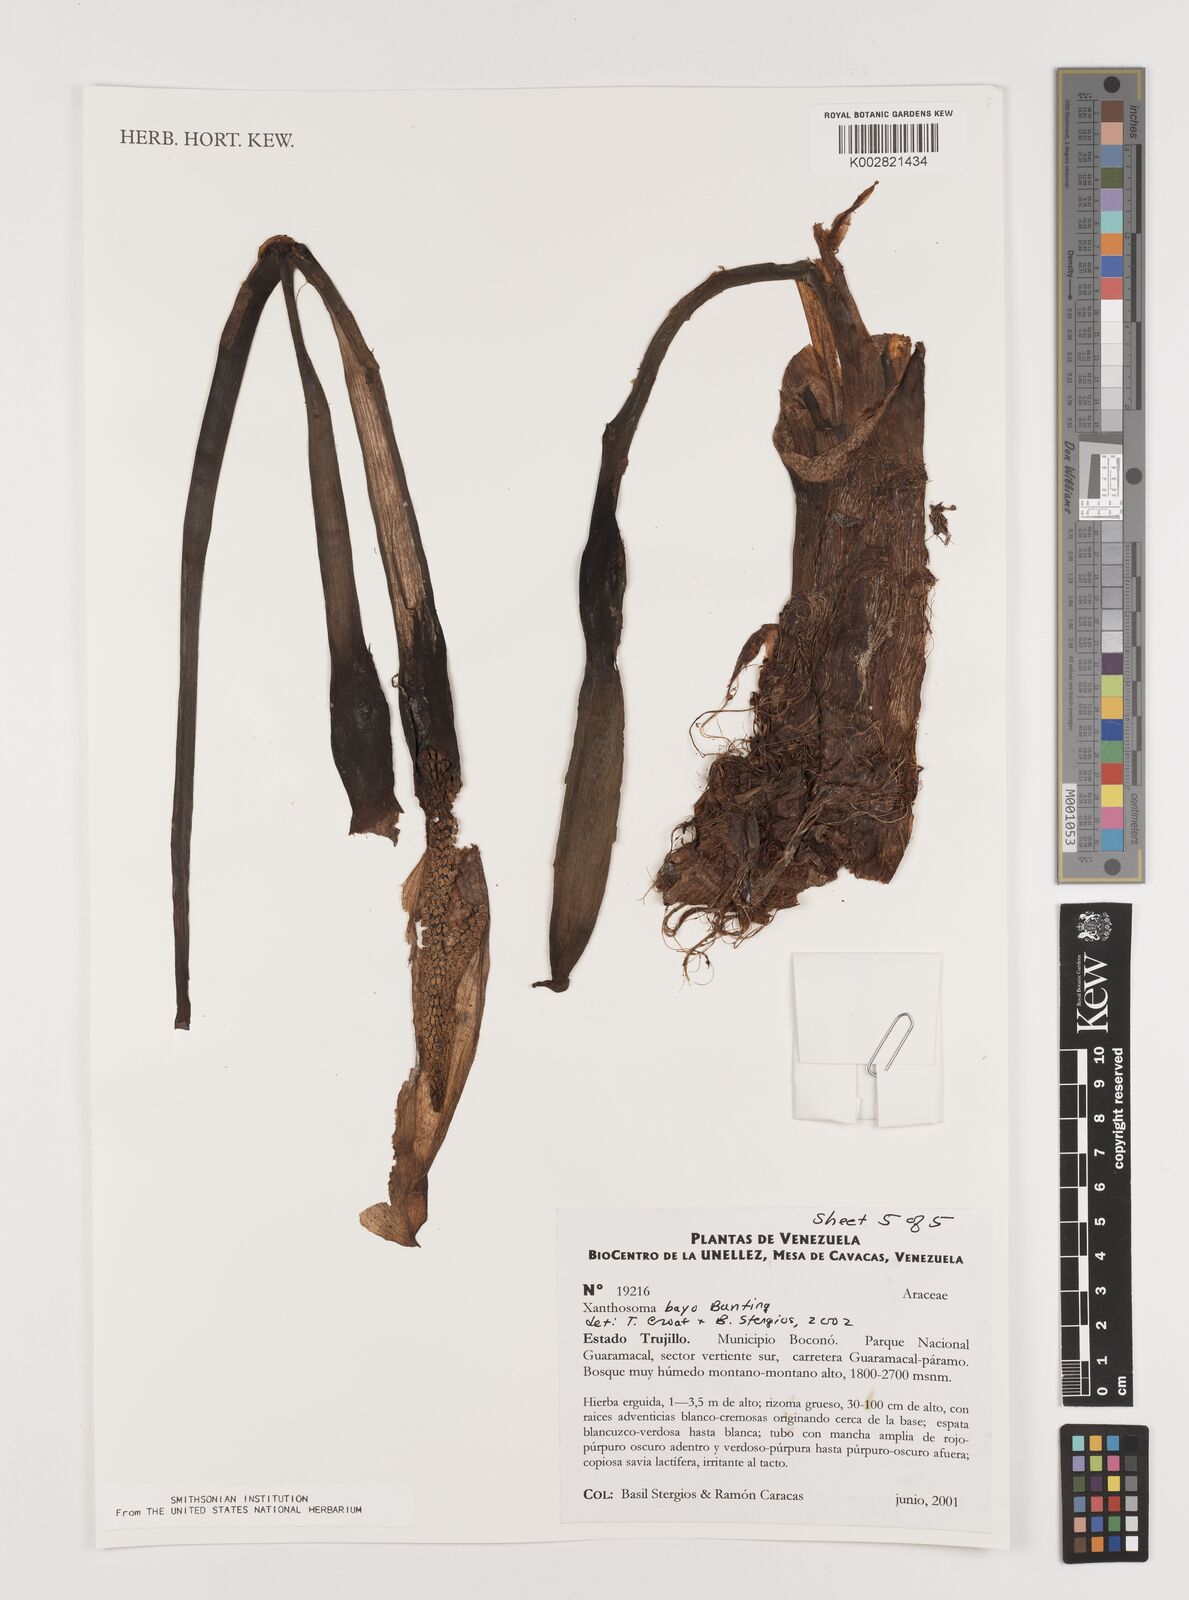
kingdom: Plantae
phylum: Tracheophyta
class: Liliopsida
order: Alismatales
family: Araceae
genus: Xanthosoma
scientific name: Xanthosoma bayo
